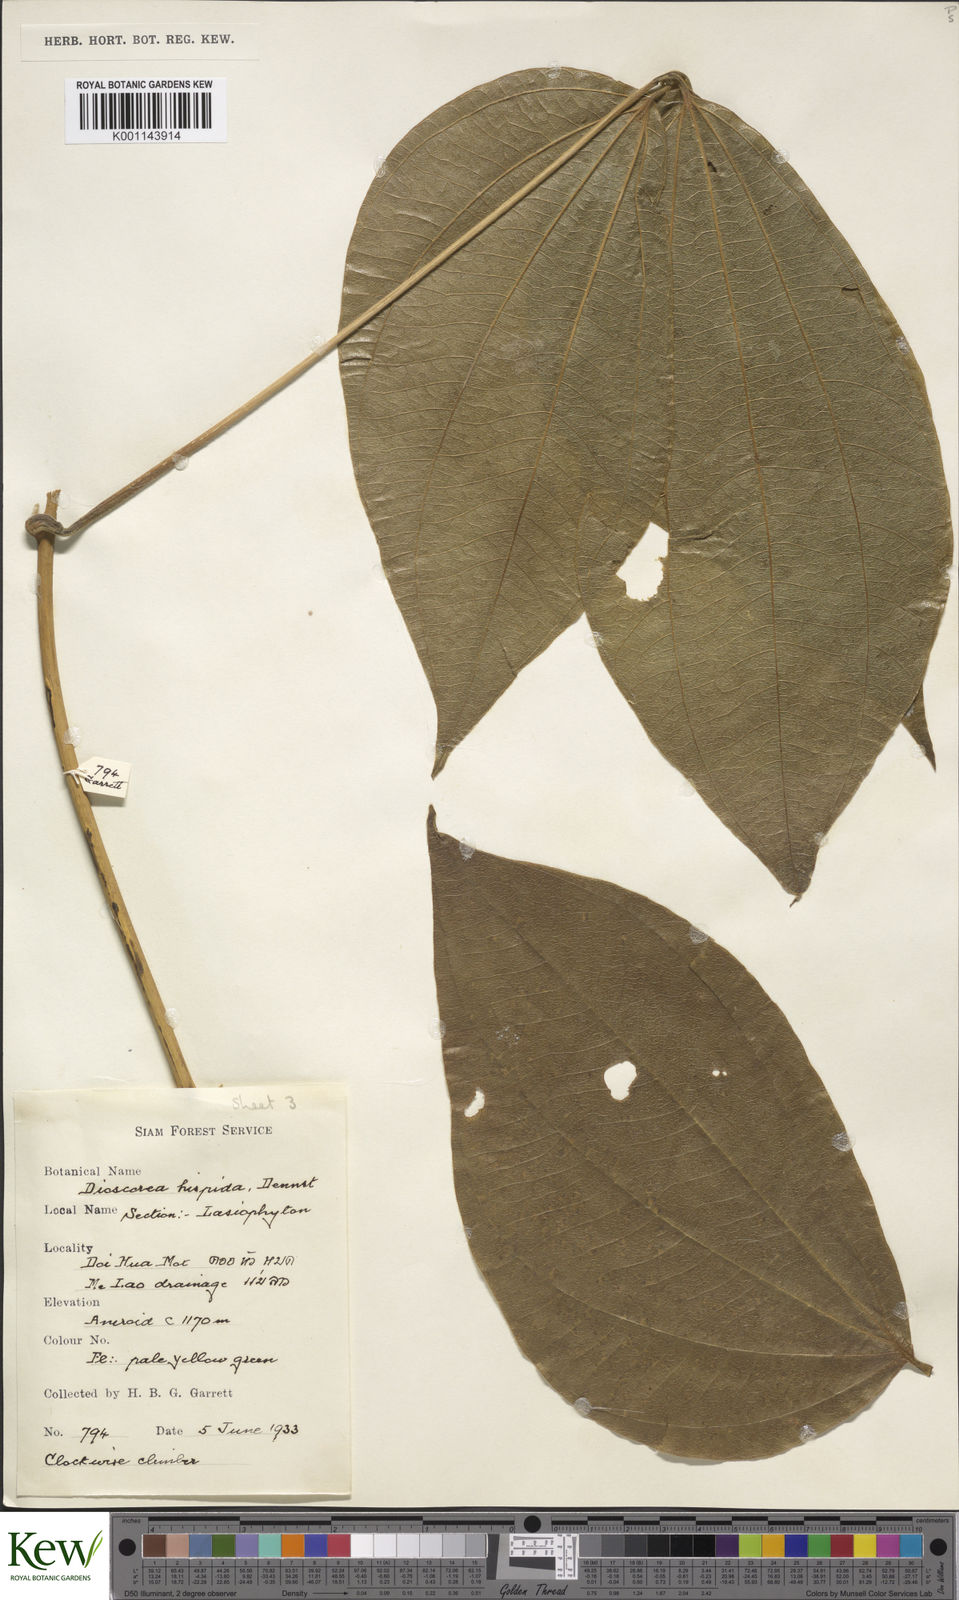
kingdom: Plantae
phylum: Tracheophyta
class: Liliopsida
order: Dioscoreales
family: Dioscoreaceae
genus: Dioscorea
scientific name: Dioscorea hispida
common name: Asiatic bitter yam
